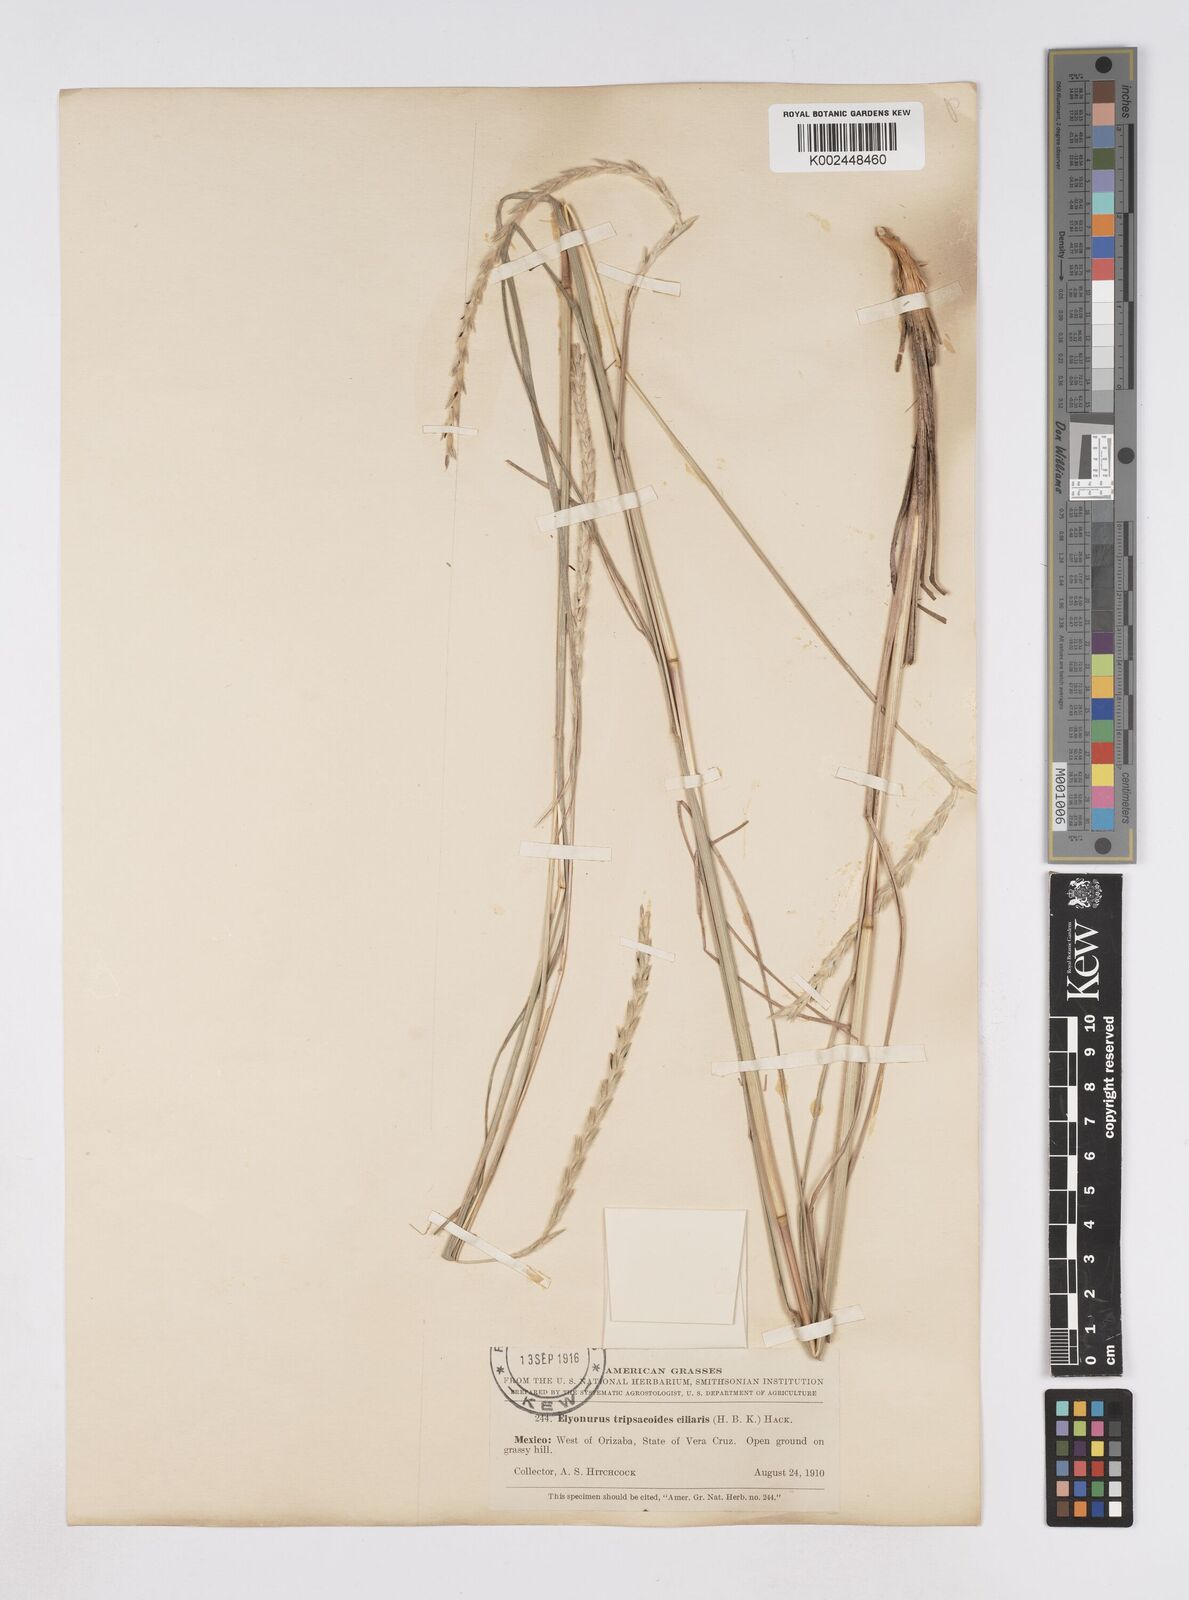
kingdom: Plantae
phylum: Tracheophyta
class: Liliopsida
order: Poales
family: Poaceae
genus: Elionurus
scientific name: Elionurus ciliaris
